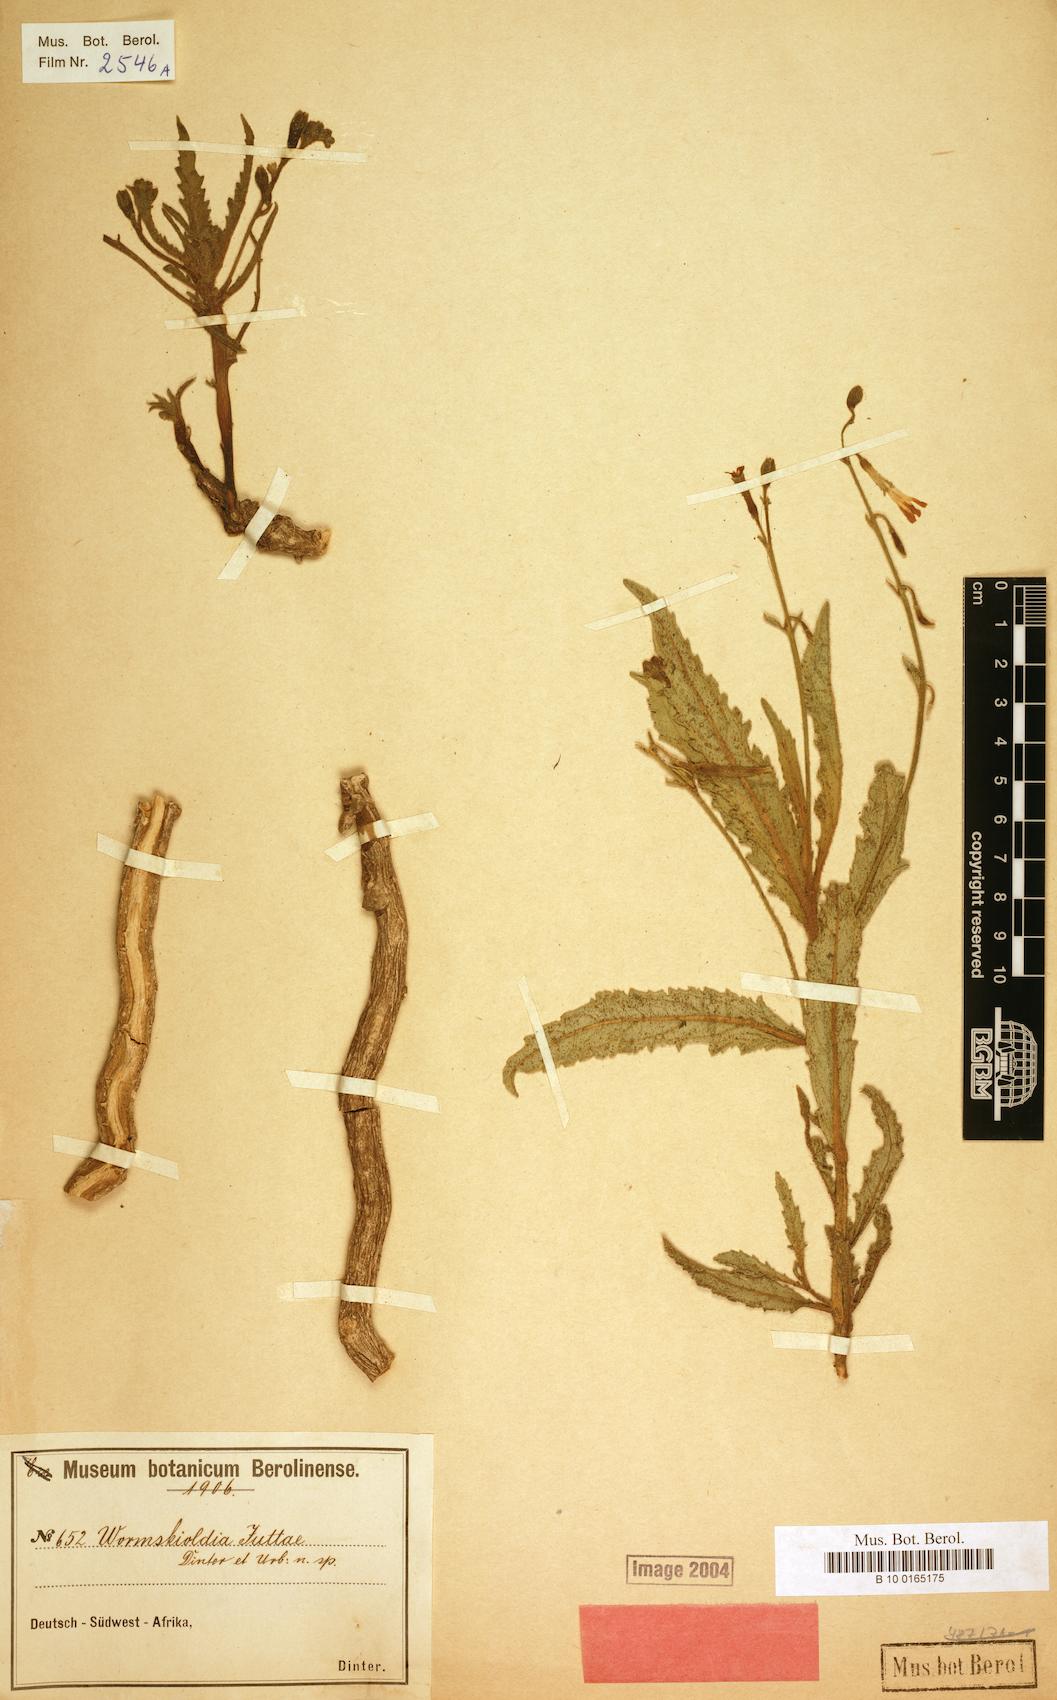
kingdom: Plantae
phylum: Tracheophyta
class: Magnoliopsida
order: Malpighiales
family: Turneraceae
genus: Tricliceras
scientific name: Tricliceras schinzii
